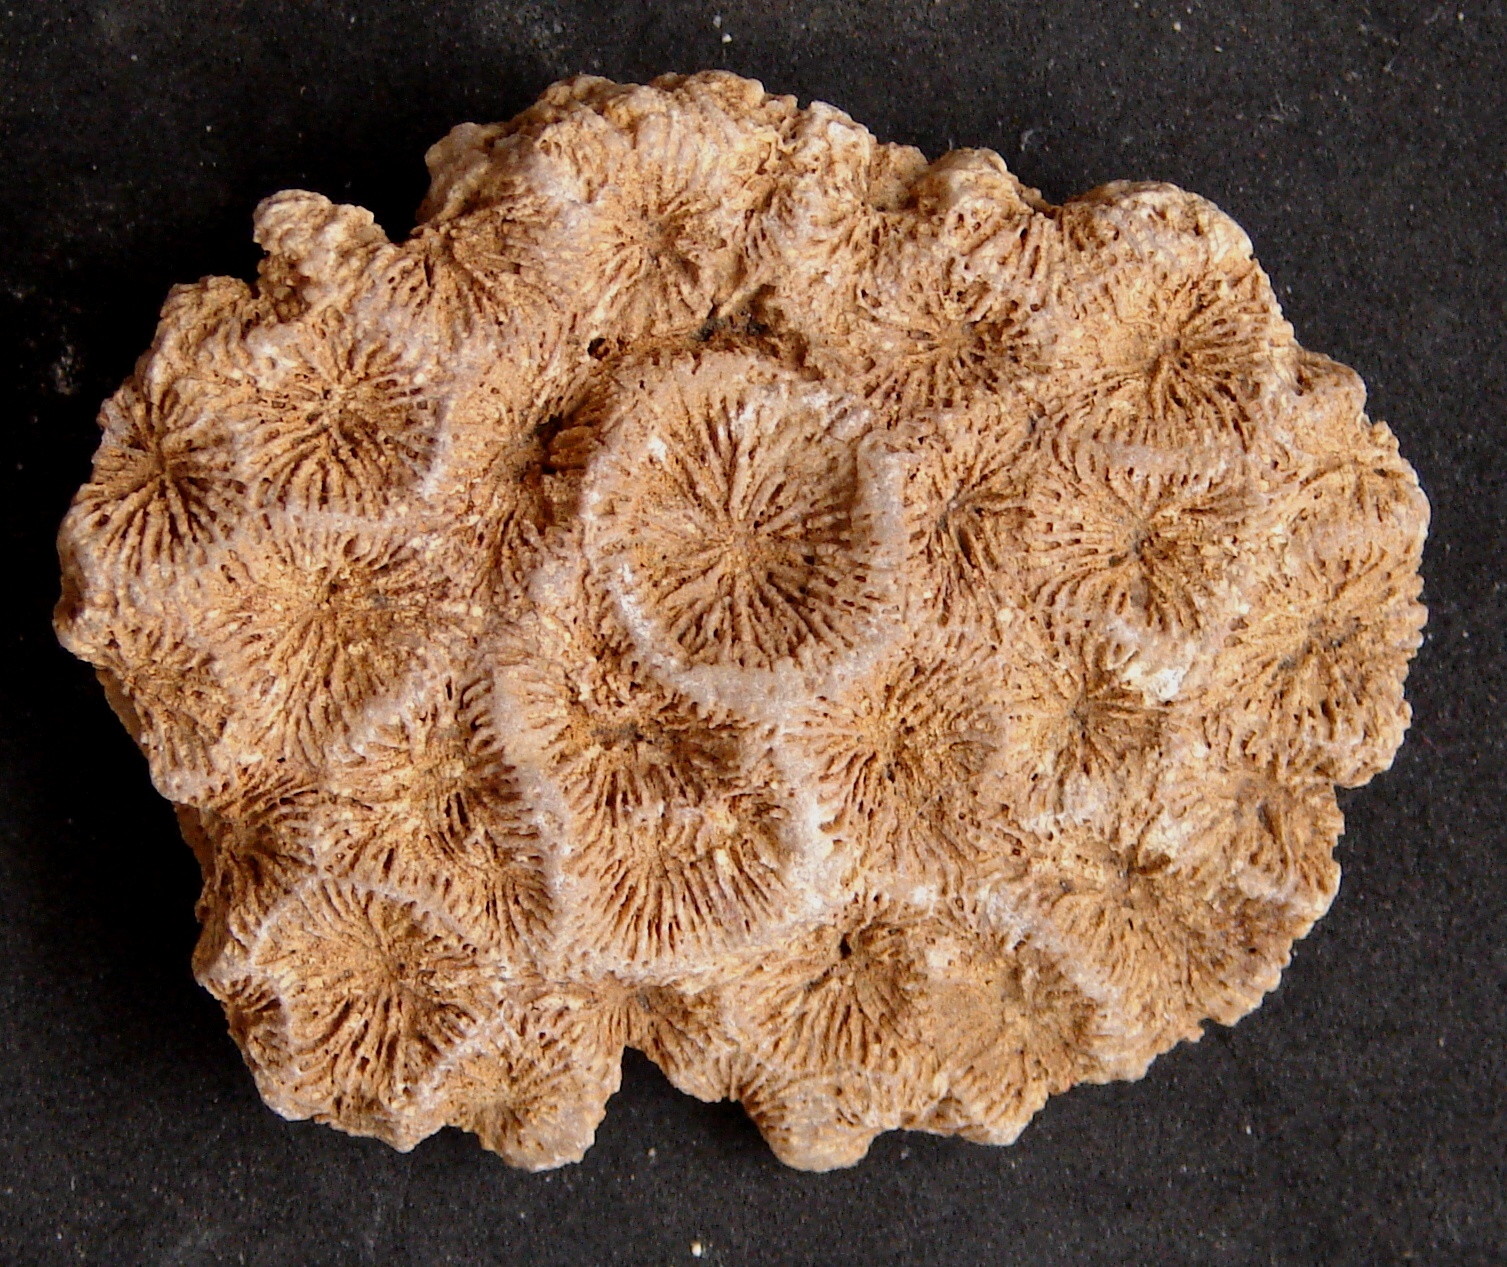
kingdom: Animalia
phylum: Cnidaria
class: Anthozoa
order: Scleractinia
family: Thecosmiliidae
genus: Isastrea
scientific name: Isastrea
